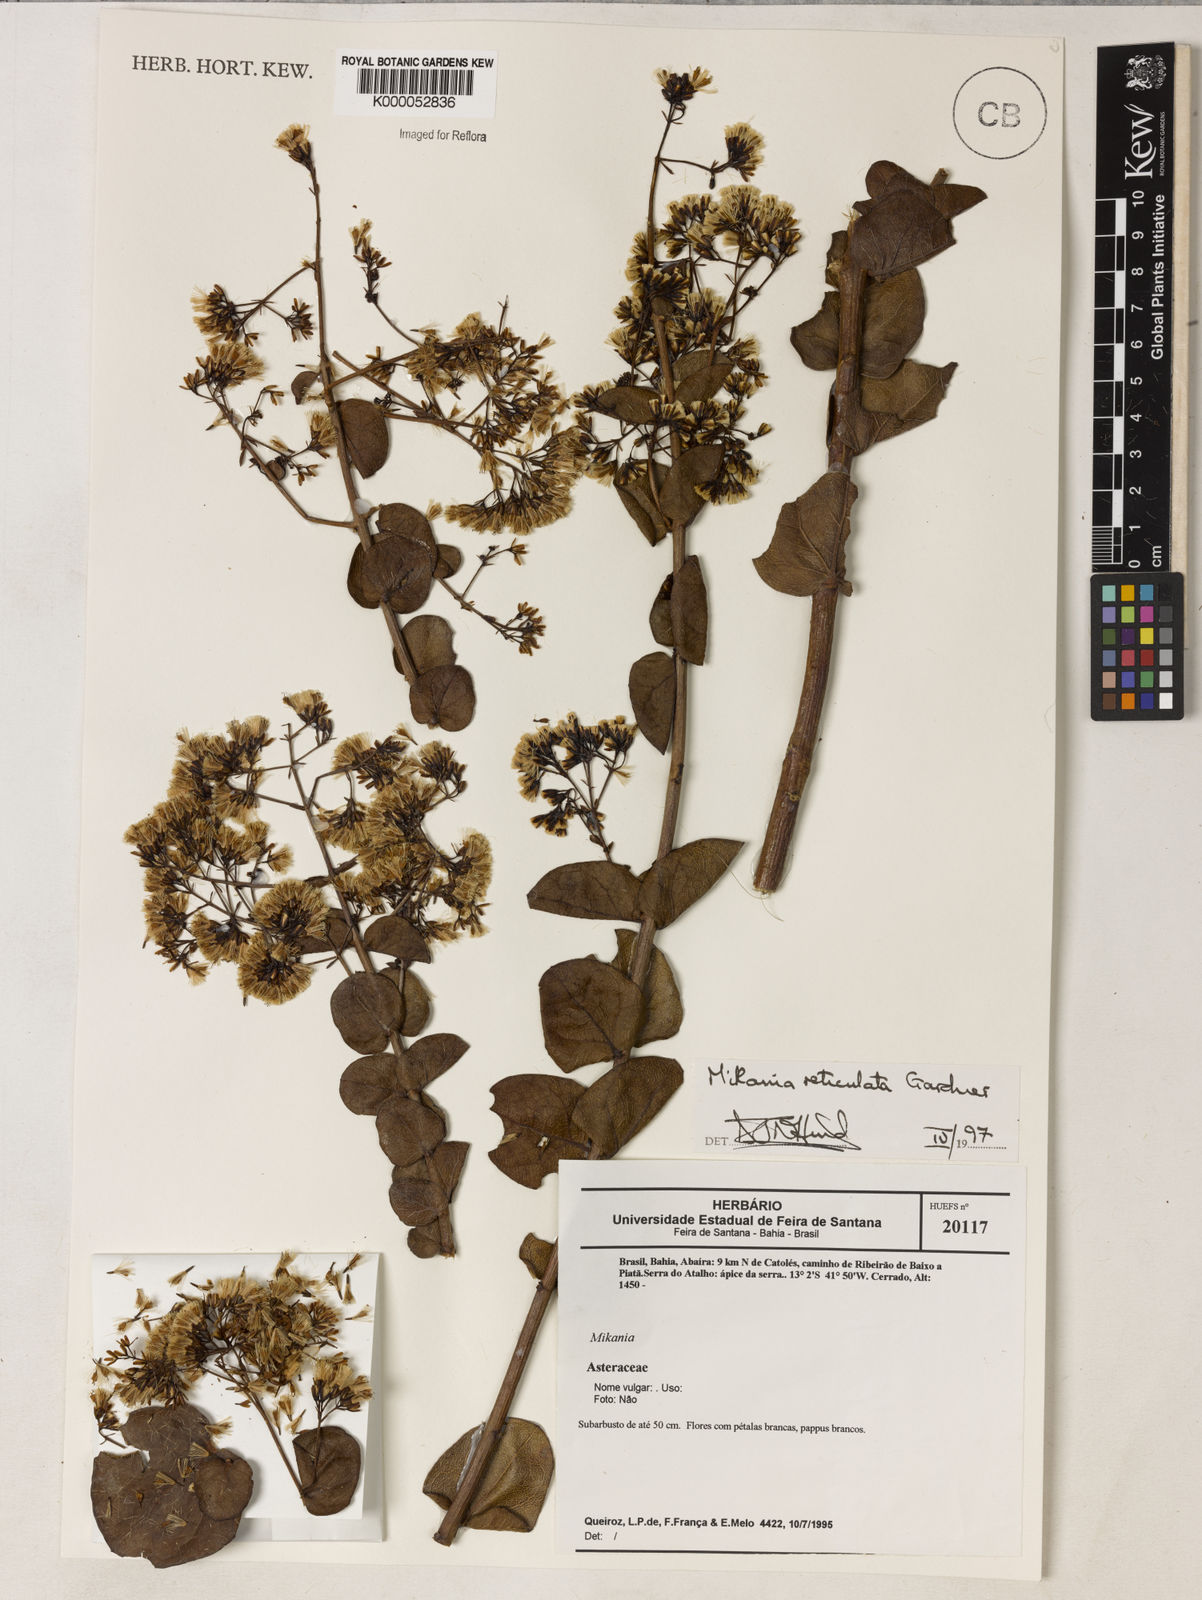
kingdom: Plantae
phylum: Tracheophyta
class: Magnoliopsida
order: Asterales
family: Asteraceae
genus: Mikania
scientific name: Mikania reticulata
